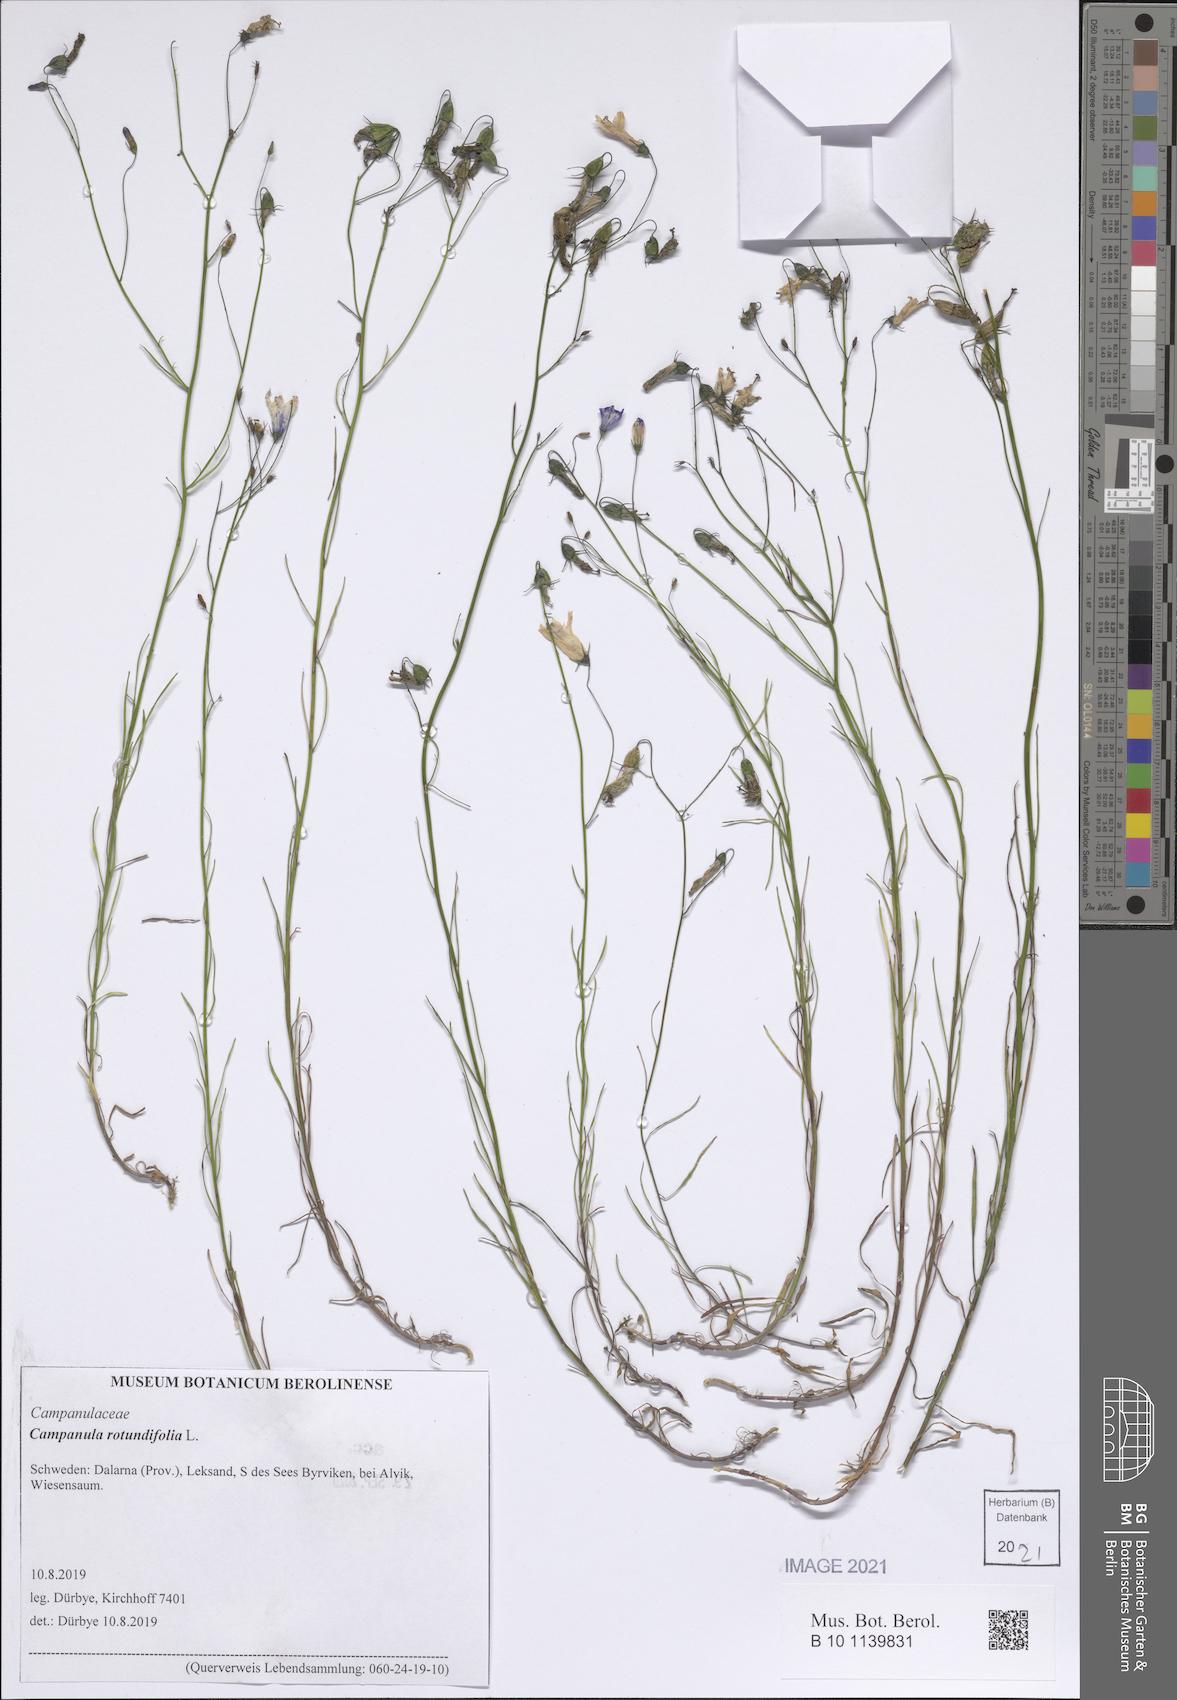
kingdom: Plantae
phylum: Tracheophyta
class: Magnoliopsida
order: Asterales
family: Campanulaceae
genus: Campanula
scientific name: Campanula rotundifolia
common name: Harebell
